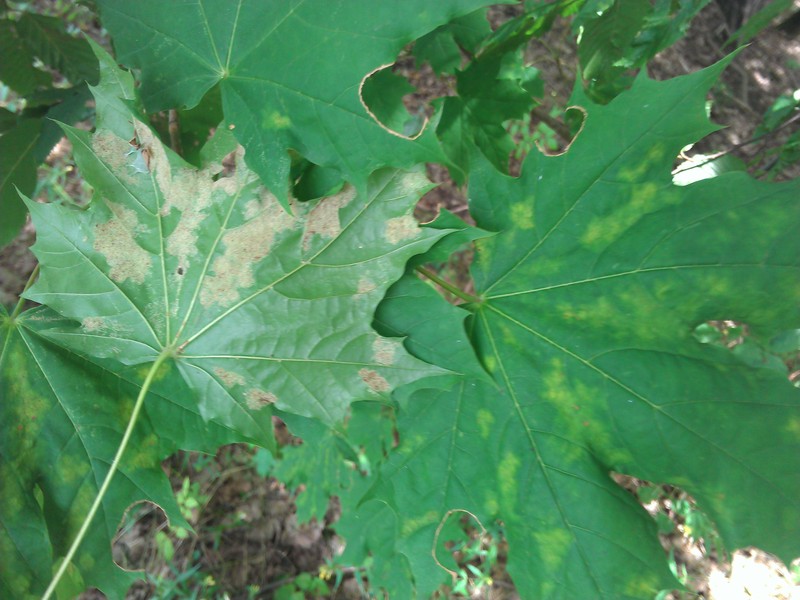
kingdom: Animalia
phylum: Arthropoda
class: Arachnida
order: Trombidiformes
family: Eriophyidae
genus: Aceria
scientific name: Aceria platanoidea
